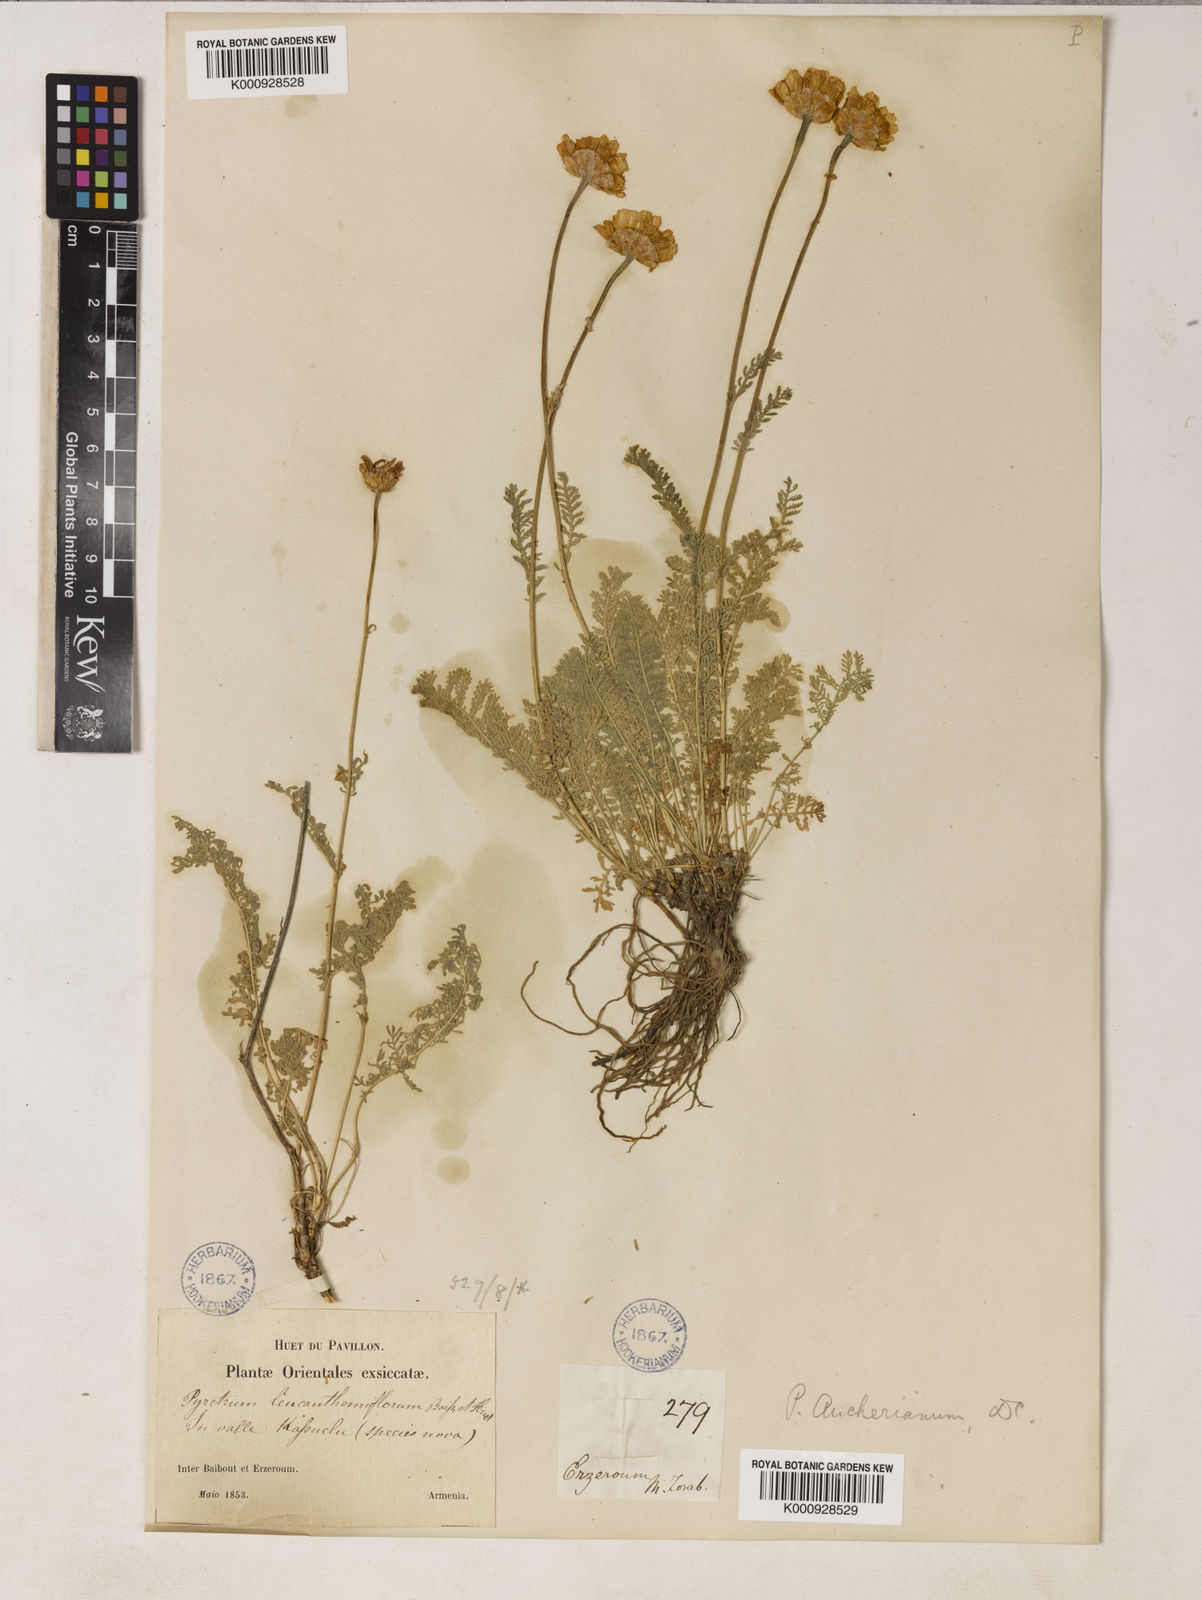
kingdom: Plantae
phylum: Tracheophyta
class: Magnoliopsida
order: Asterales
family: Asteraceae
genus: Tanacetum
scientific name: Tanacetum mucroniferum
